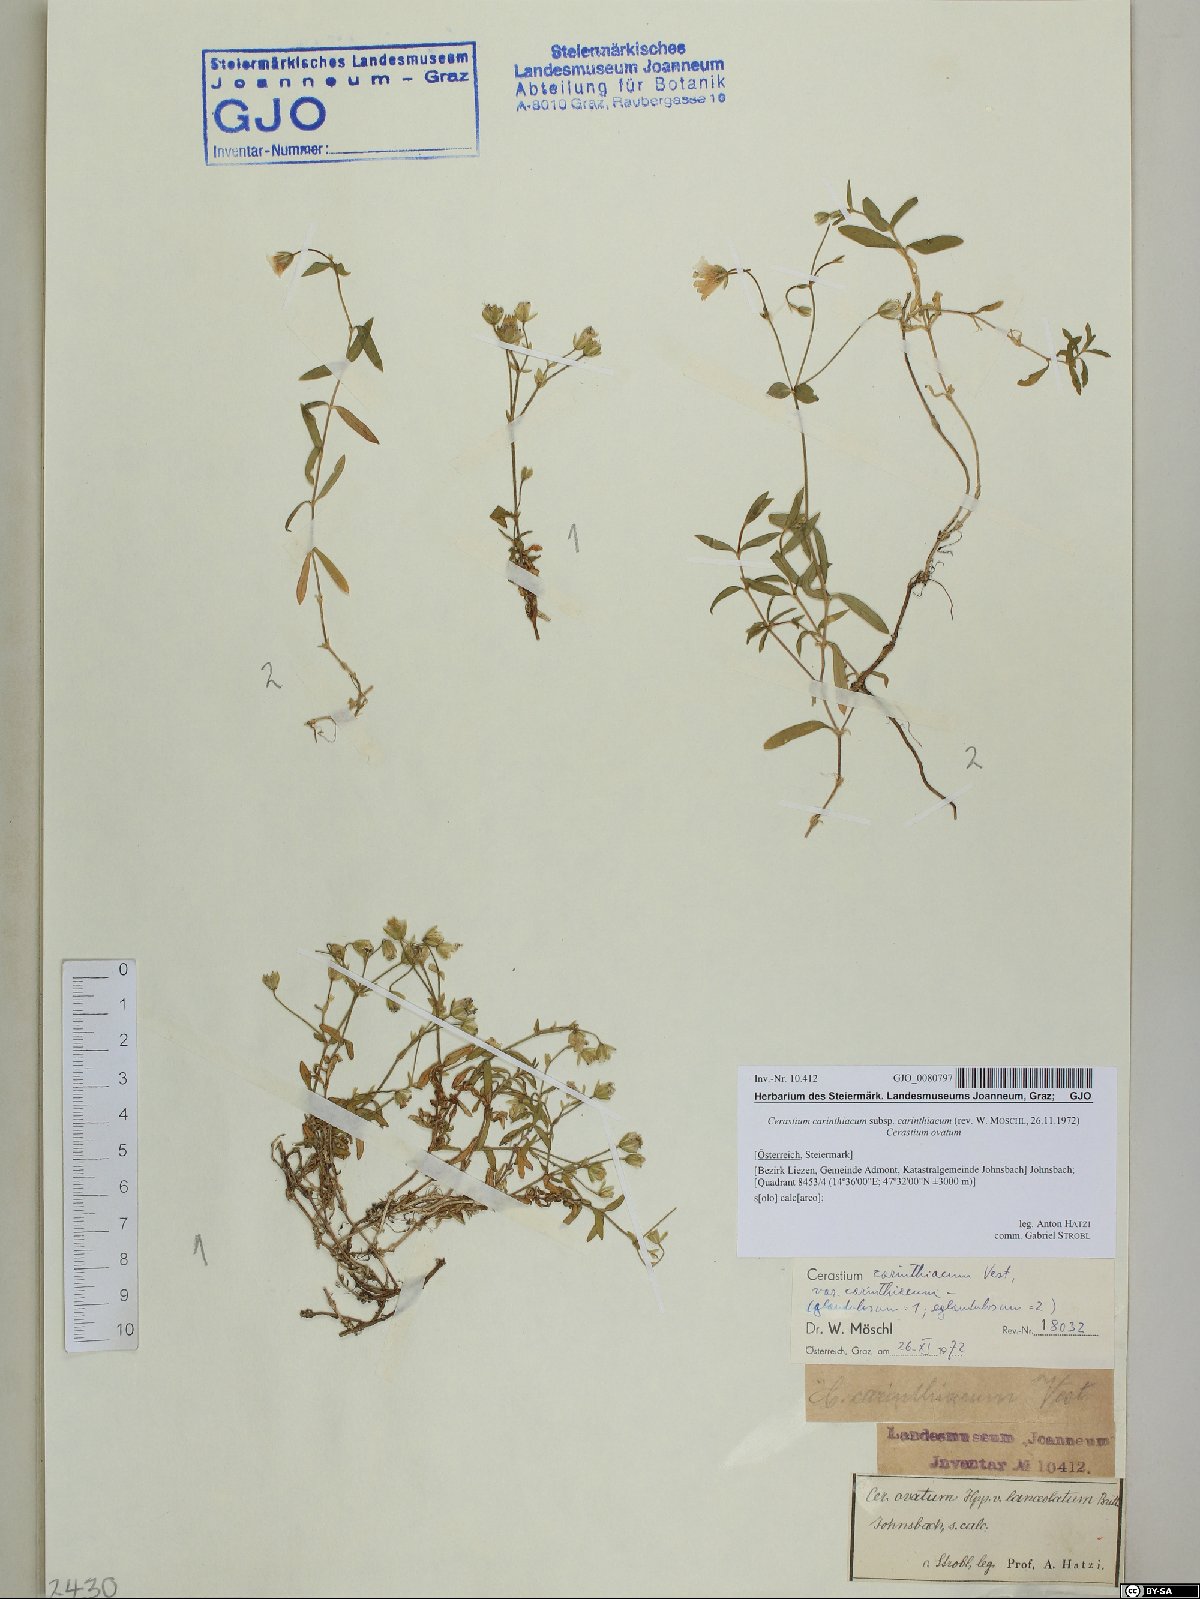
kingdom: Plantae
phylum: Tracheophyta
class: Magnoliopsida
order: Caryophyllales
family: Caryophyllaceae
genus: Cerastium
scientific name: Cerastium carinthiacum
